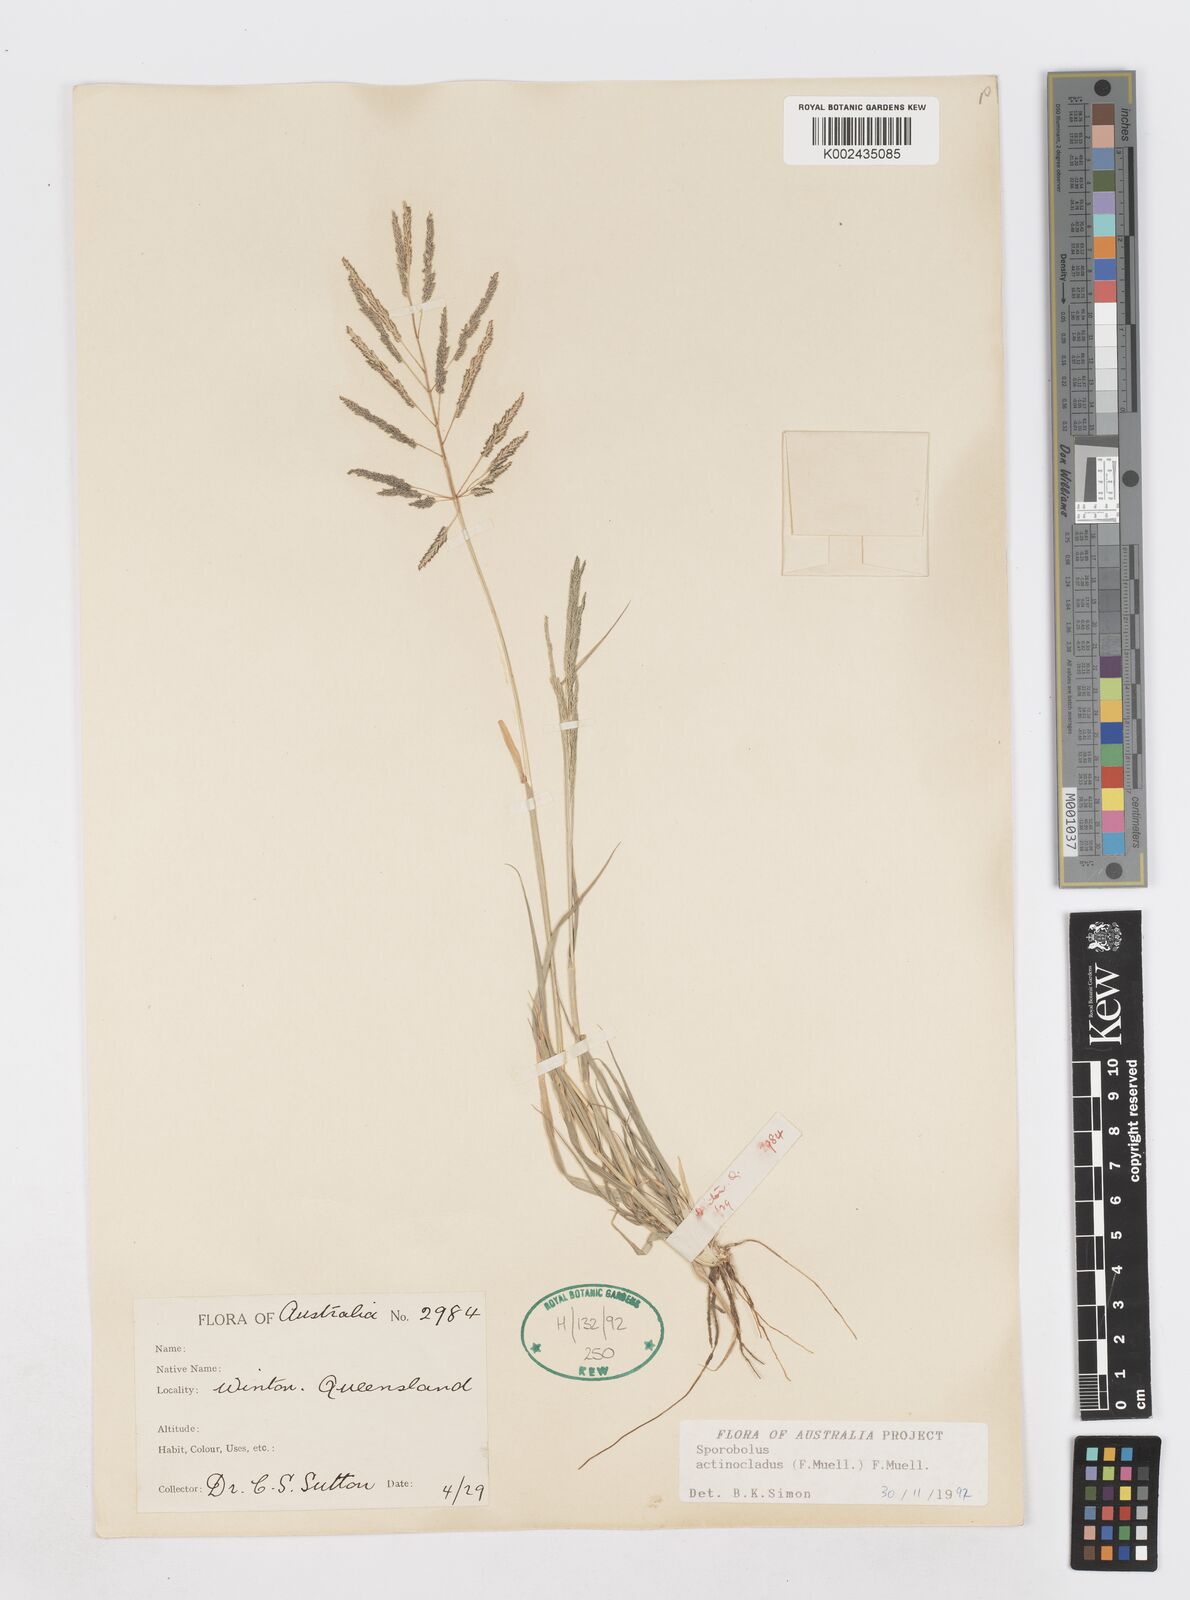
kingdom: Plantae
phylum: Tracheophyta
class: Liliopsida
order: Poales
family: Poaceae
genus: Sporobolus
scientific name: Sporobolus actinocladus
